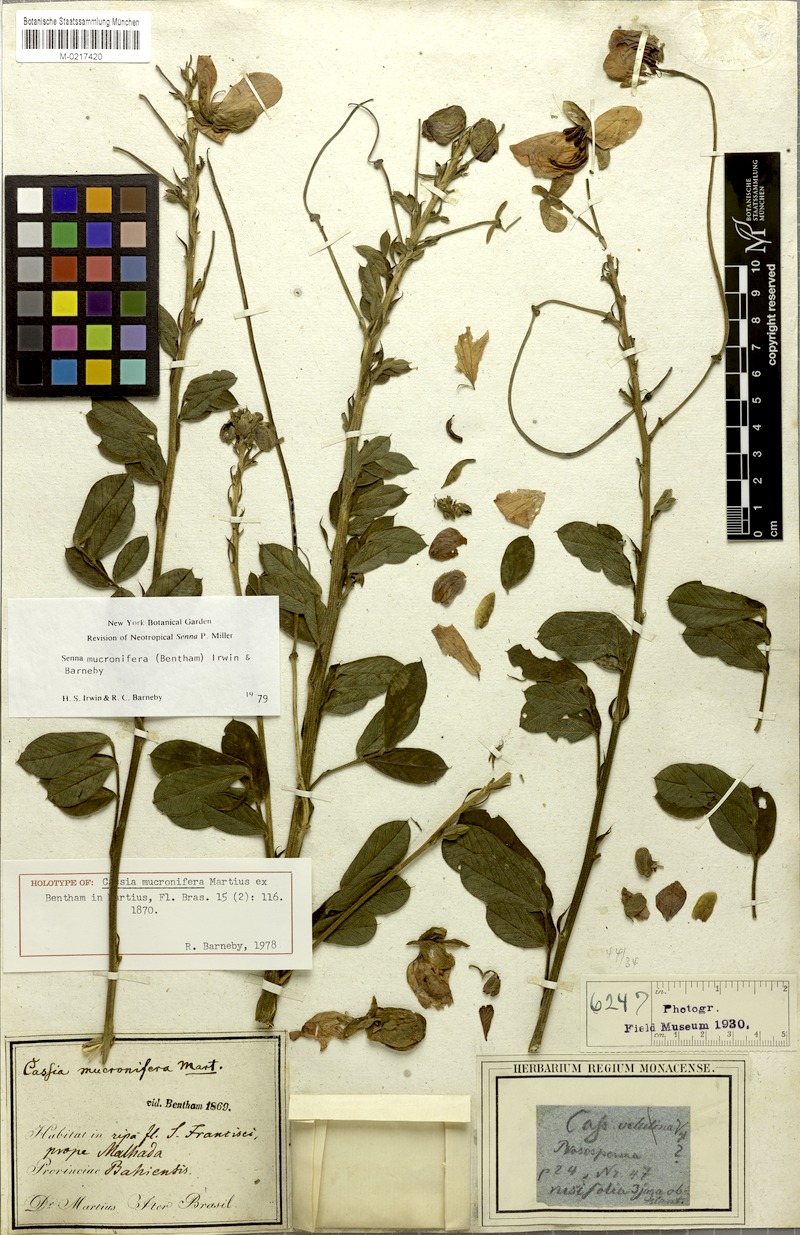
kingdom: Plantae
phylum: Tracheophyta
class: Magnoliopsida
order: Fabales
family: Fabaceae
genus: Senna
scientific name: Senna mucronifera
